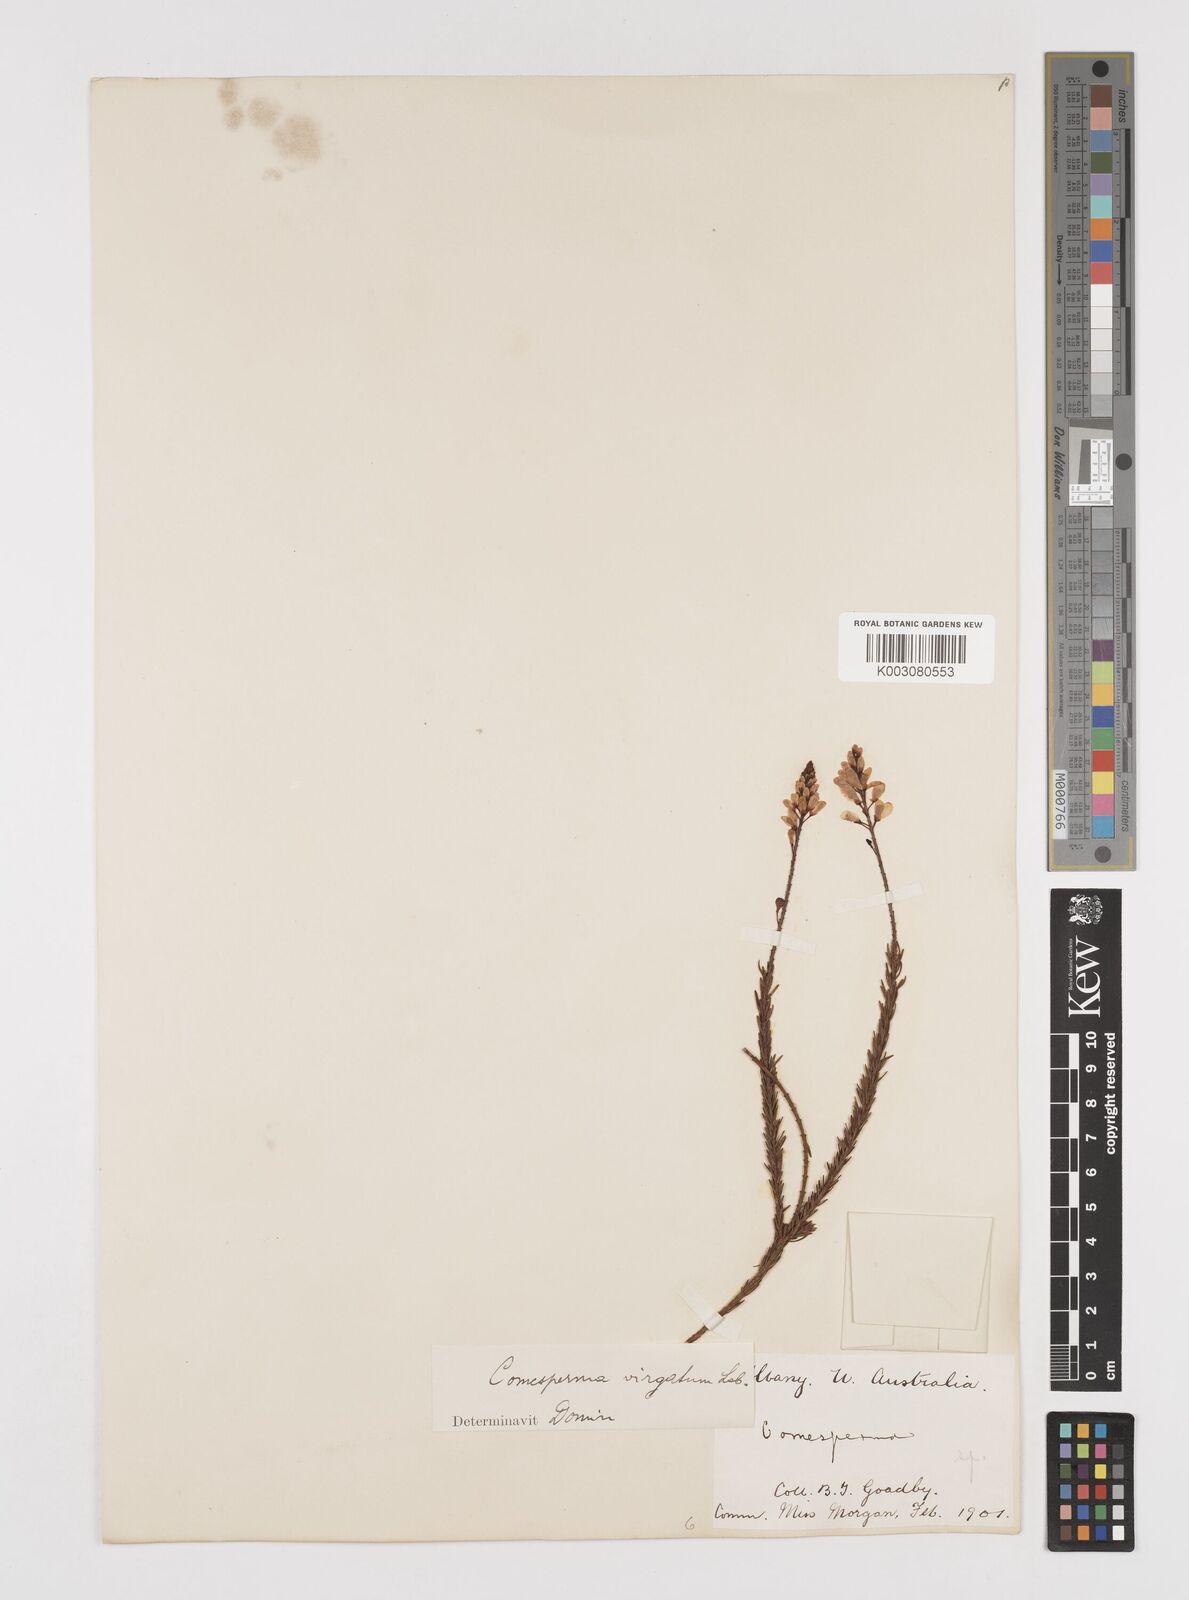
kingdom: Plantae
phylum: Tracheophyta
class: Magnoliopsida
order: Fabales
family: Polygalaceae
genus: Comesperma
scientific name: Comesperma virgatum
